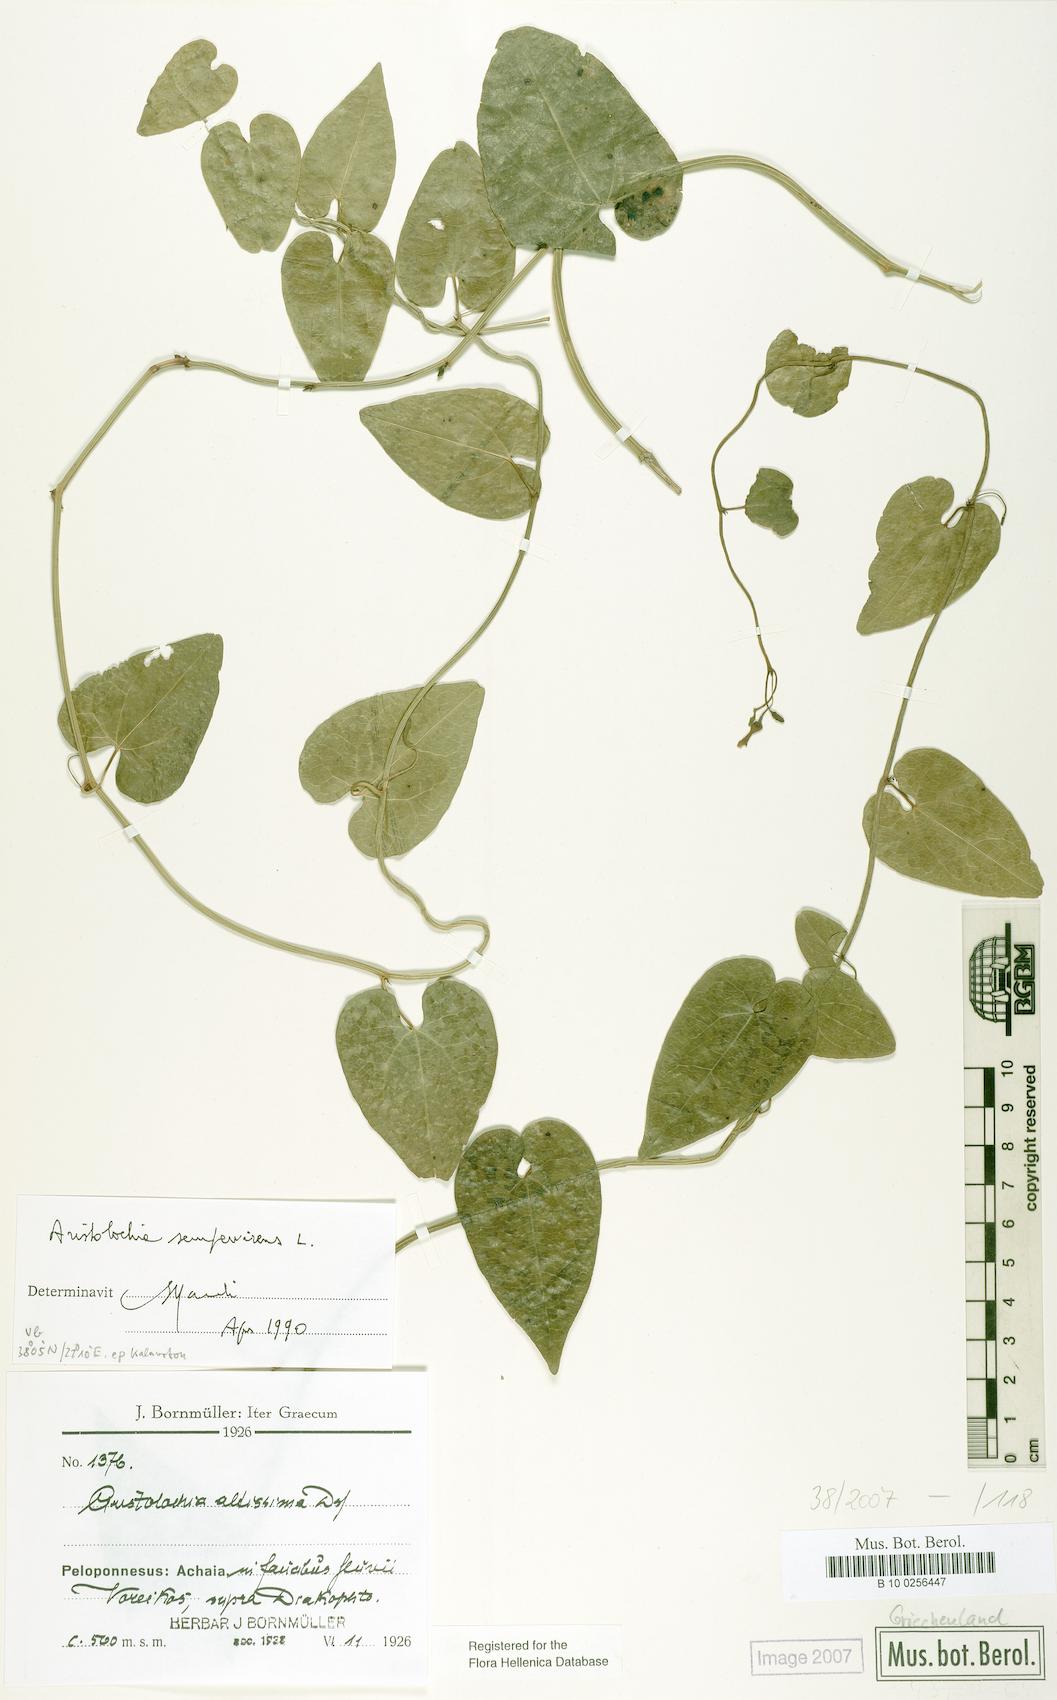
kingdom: Plantae
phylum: Tracheophyta
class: Magnoliopsida
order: Piperales
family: Aristolochiaceae
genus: Aristolochia
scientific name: Aristolochia sempervirens
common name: Long birthwort
